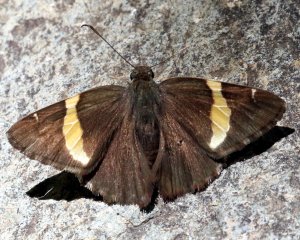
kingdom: Animalia
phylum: Arthropoda
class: Insecta
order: Lepidoptera
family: Hesperiidae
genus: Autochton
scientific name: Autochton cellus
